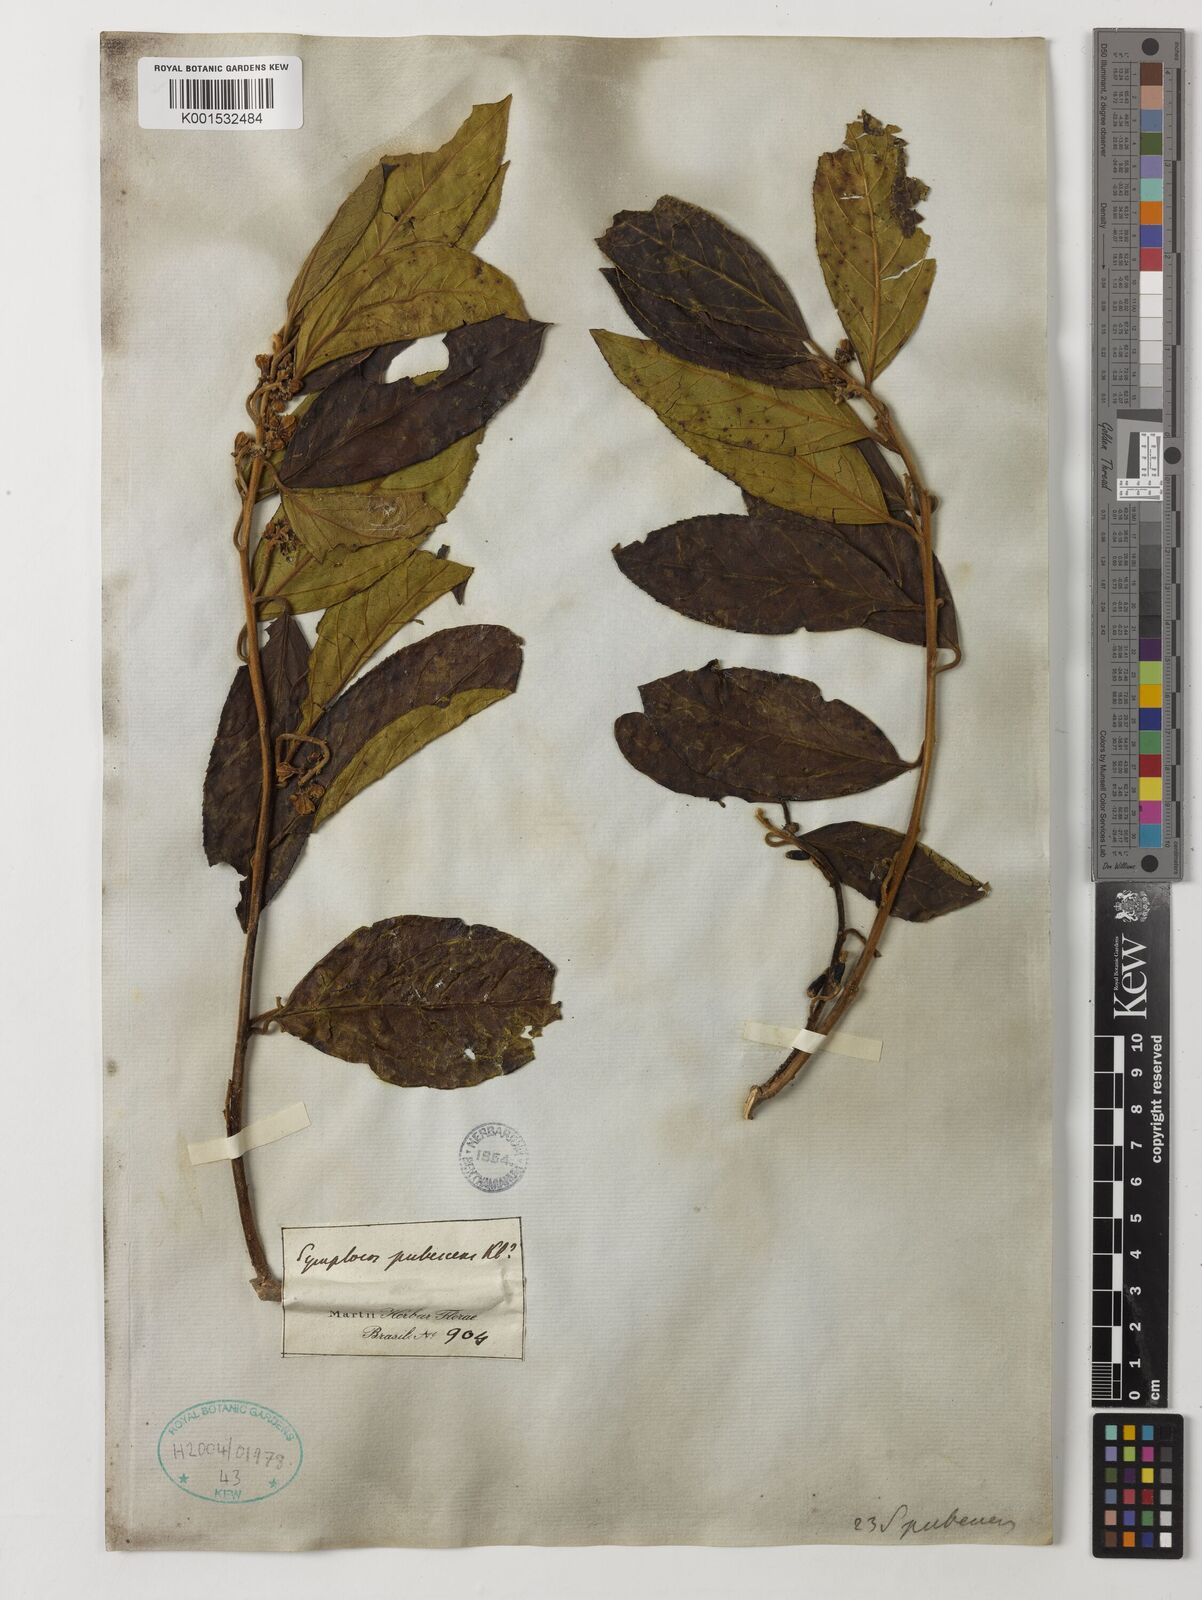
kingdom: Plantae
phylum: Tracheophyta
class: Magnoliopsida
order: Ericales
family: Symplocaceae
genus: Symplocos
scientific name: Symplocos pubescens
